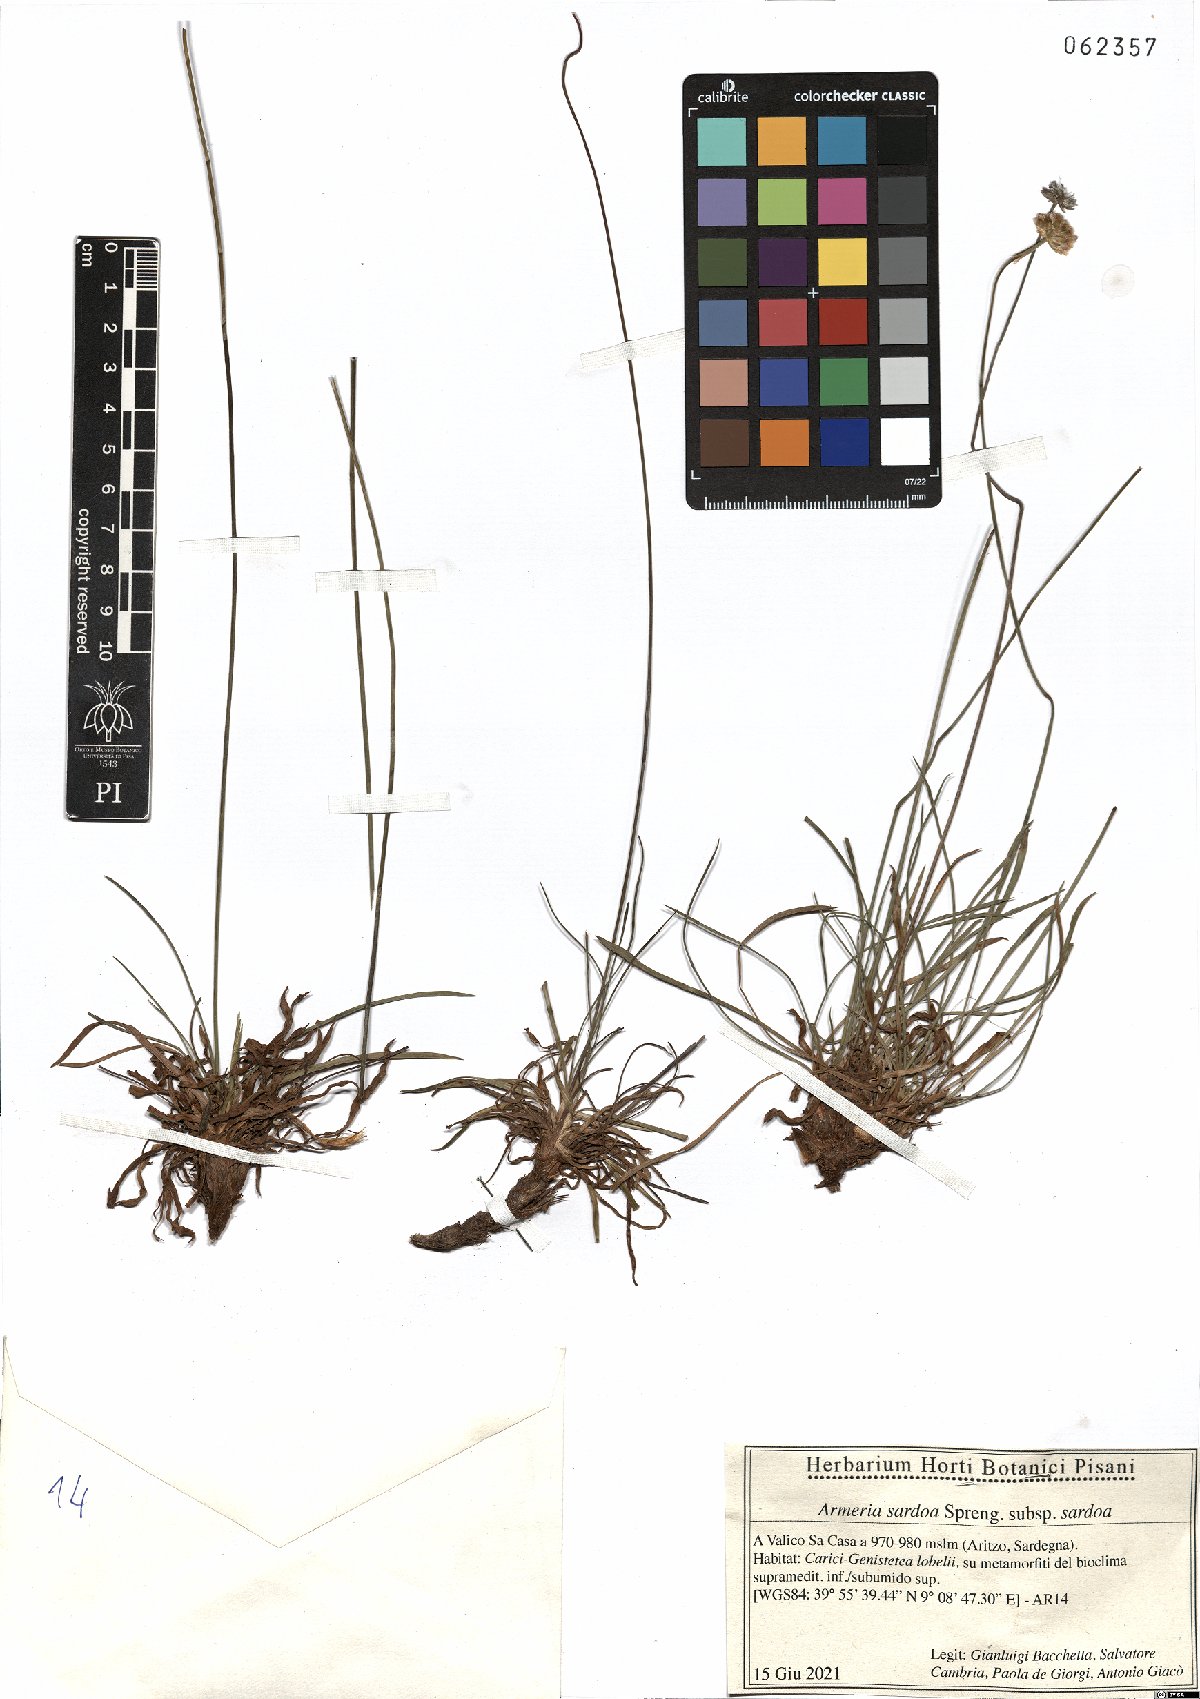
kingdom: Plantae
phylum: Tracheophyta
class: Magnoliopsida
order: Caryophyllales
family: Plumbaginaceae
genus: Armeria
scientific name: Armeria sardoa
